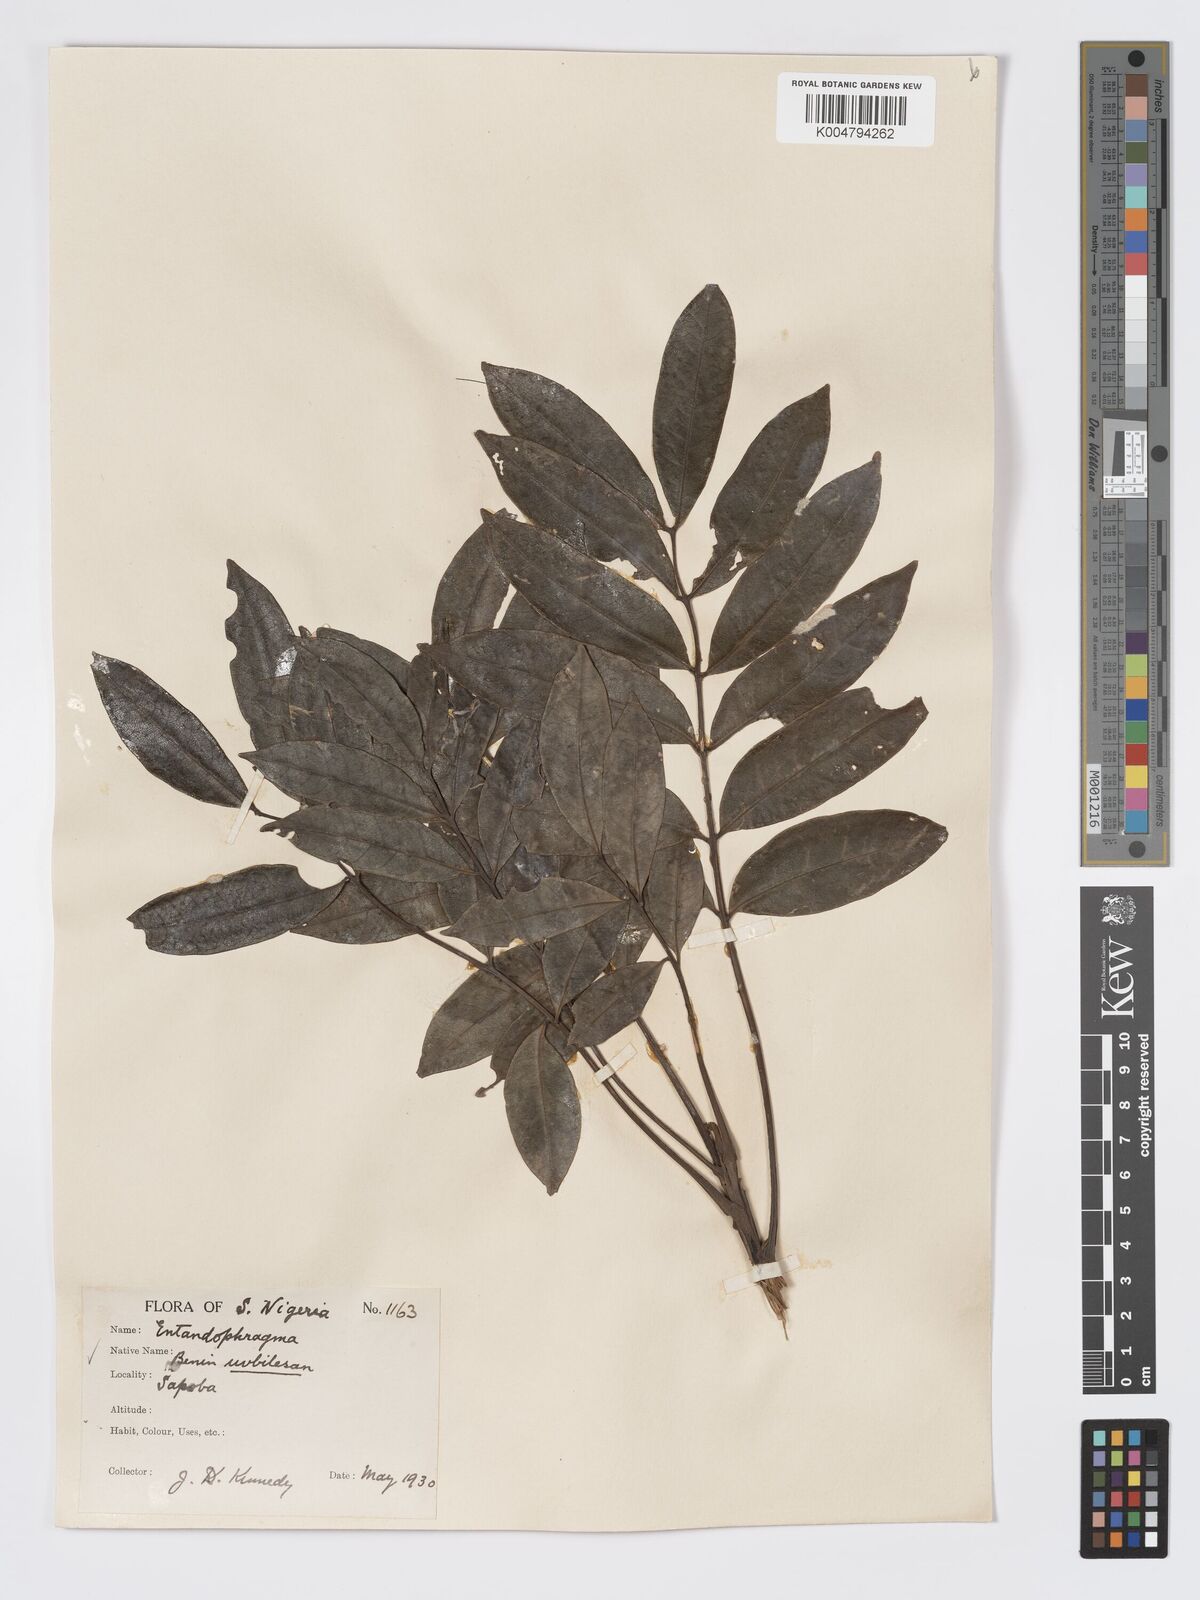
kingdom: Plantae
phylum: Tracheophyta
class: Magnoliopsida
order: Sapindales
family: Meliaceae
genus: Entandrophragma
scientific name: Entandrophragma cylindricum
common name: Sapele
